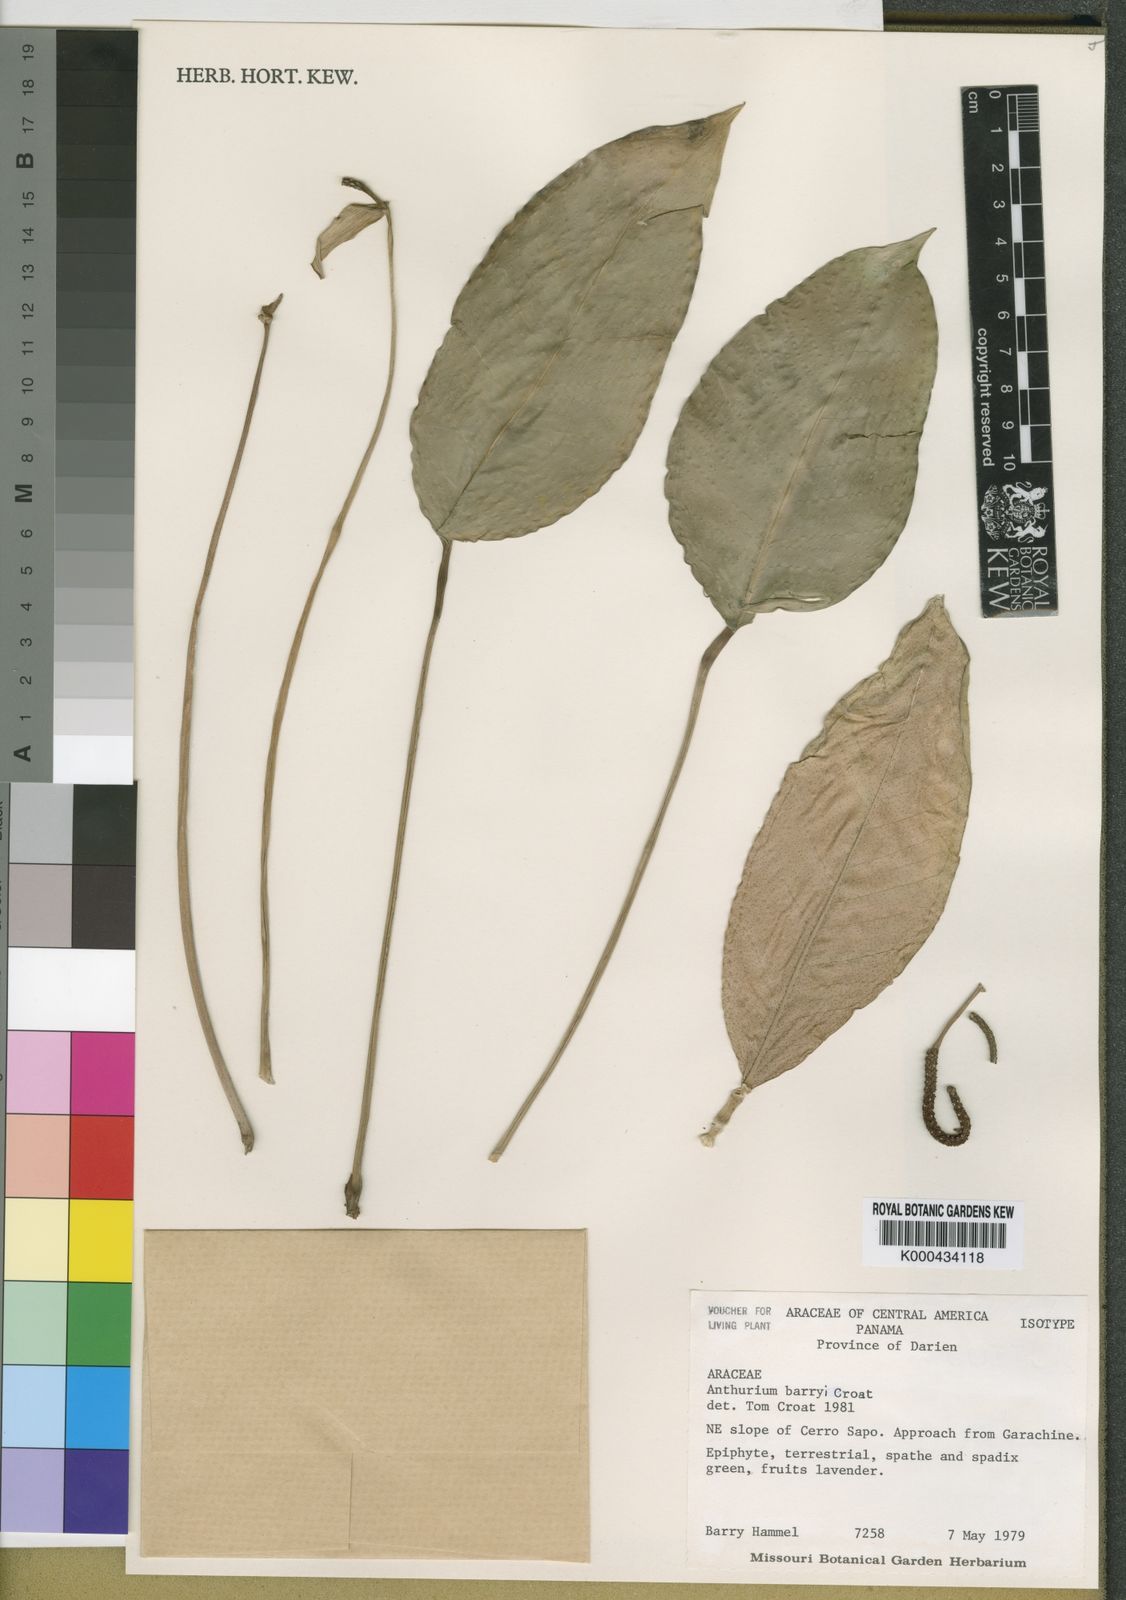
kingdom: Plantae
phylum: Tracheophyta
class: Liliopsida
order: Alismatales
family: Araceae
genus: Anthurium
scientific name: Anthurium barryi
